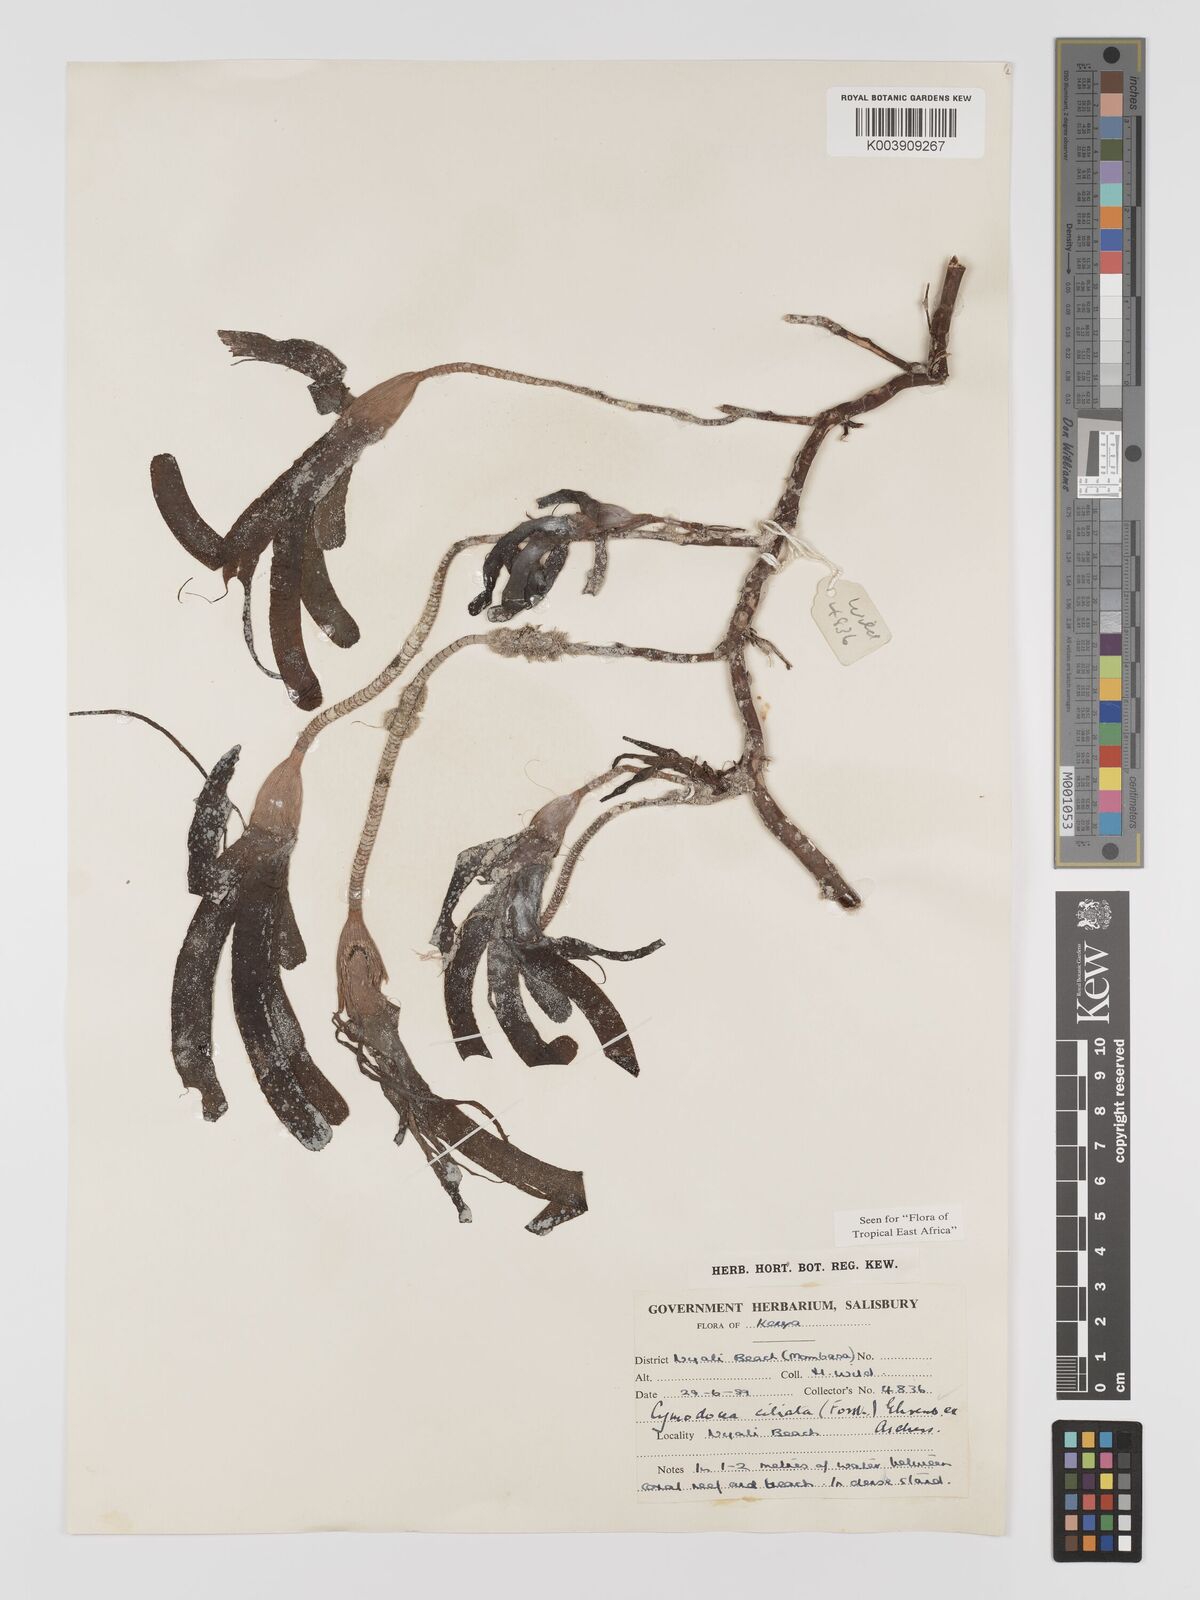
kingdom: Plantae
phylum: Tracheophyta
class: Liliopsida
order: Alismatales
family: Cymodoceaceae
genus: Thalassodendron
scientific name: Thalassodendron ciliatum
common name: Species code: tc
